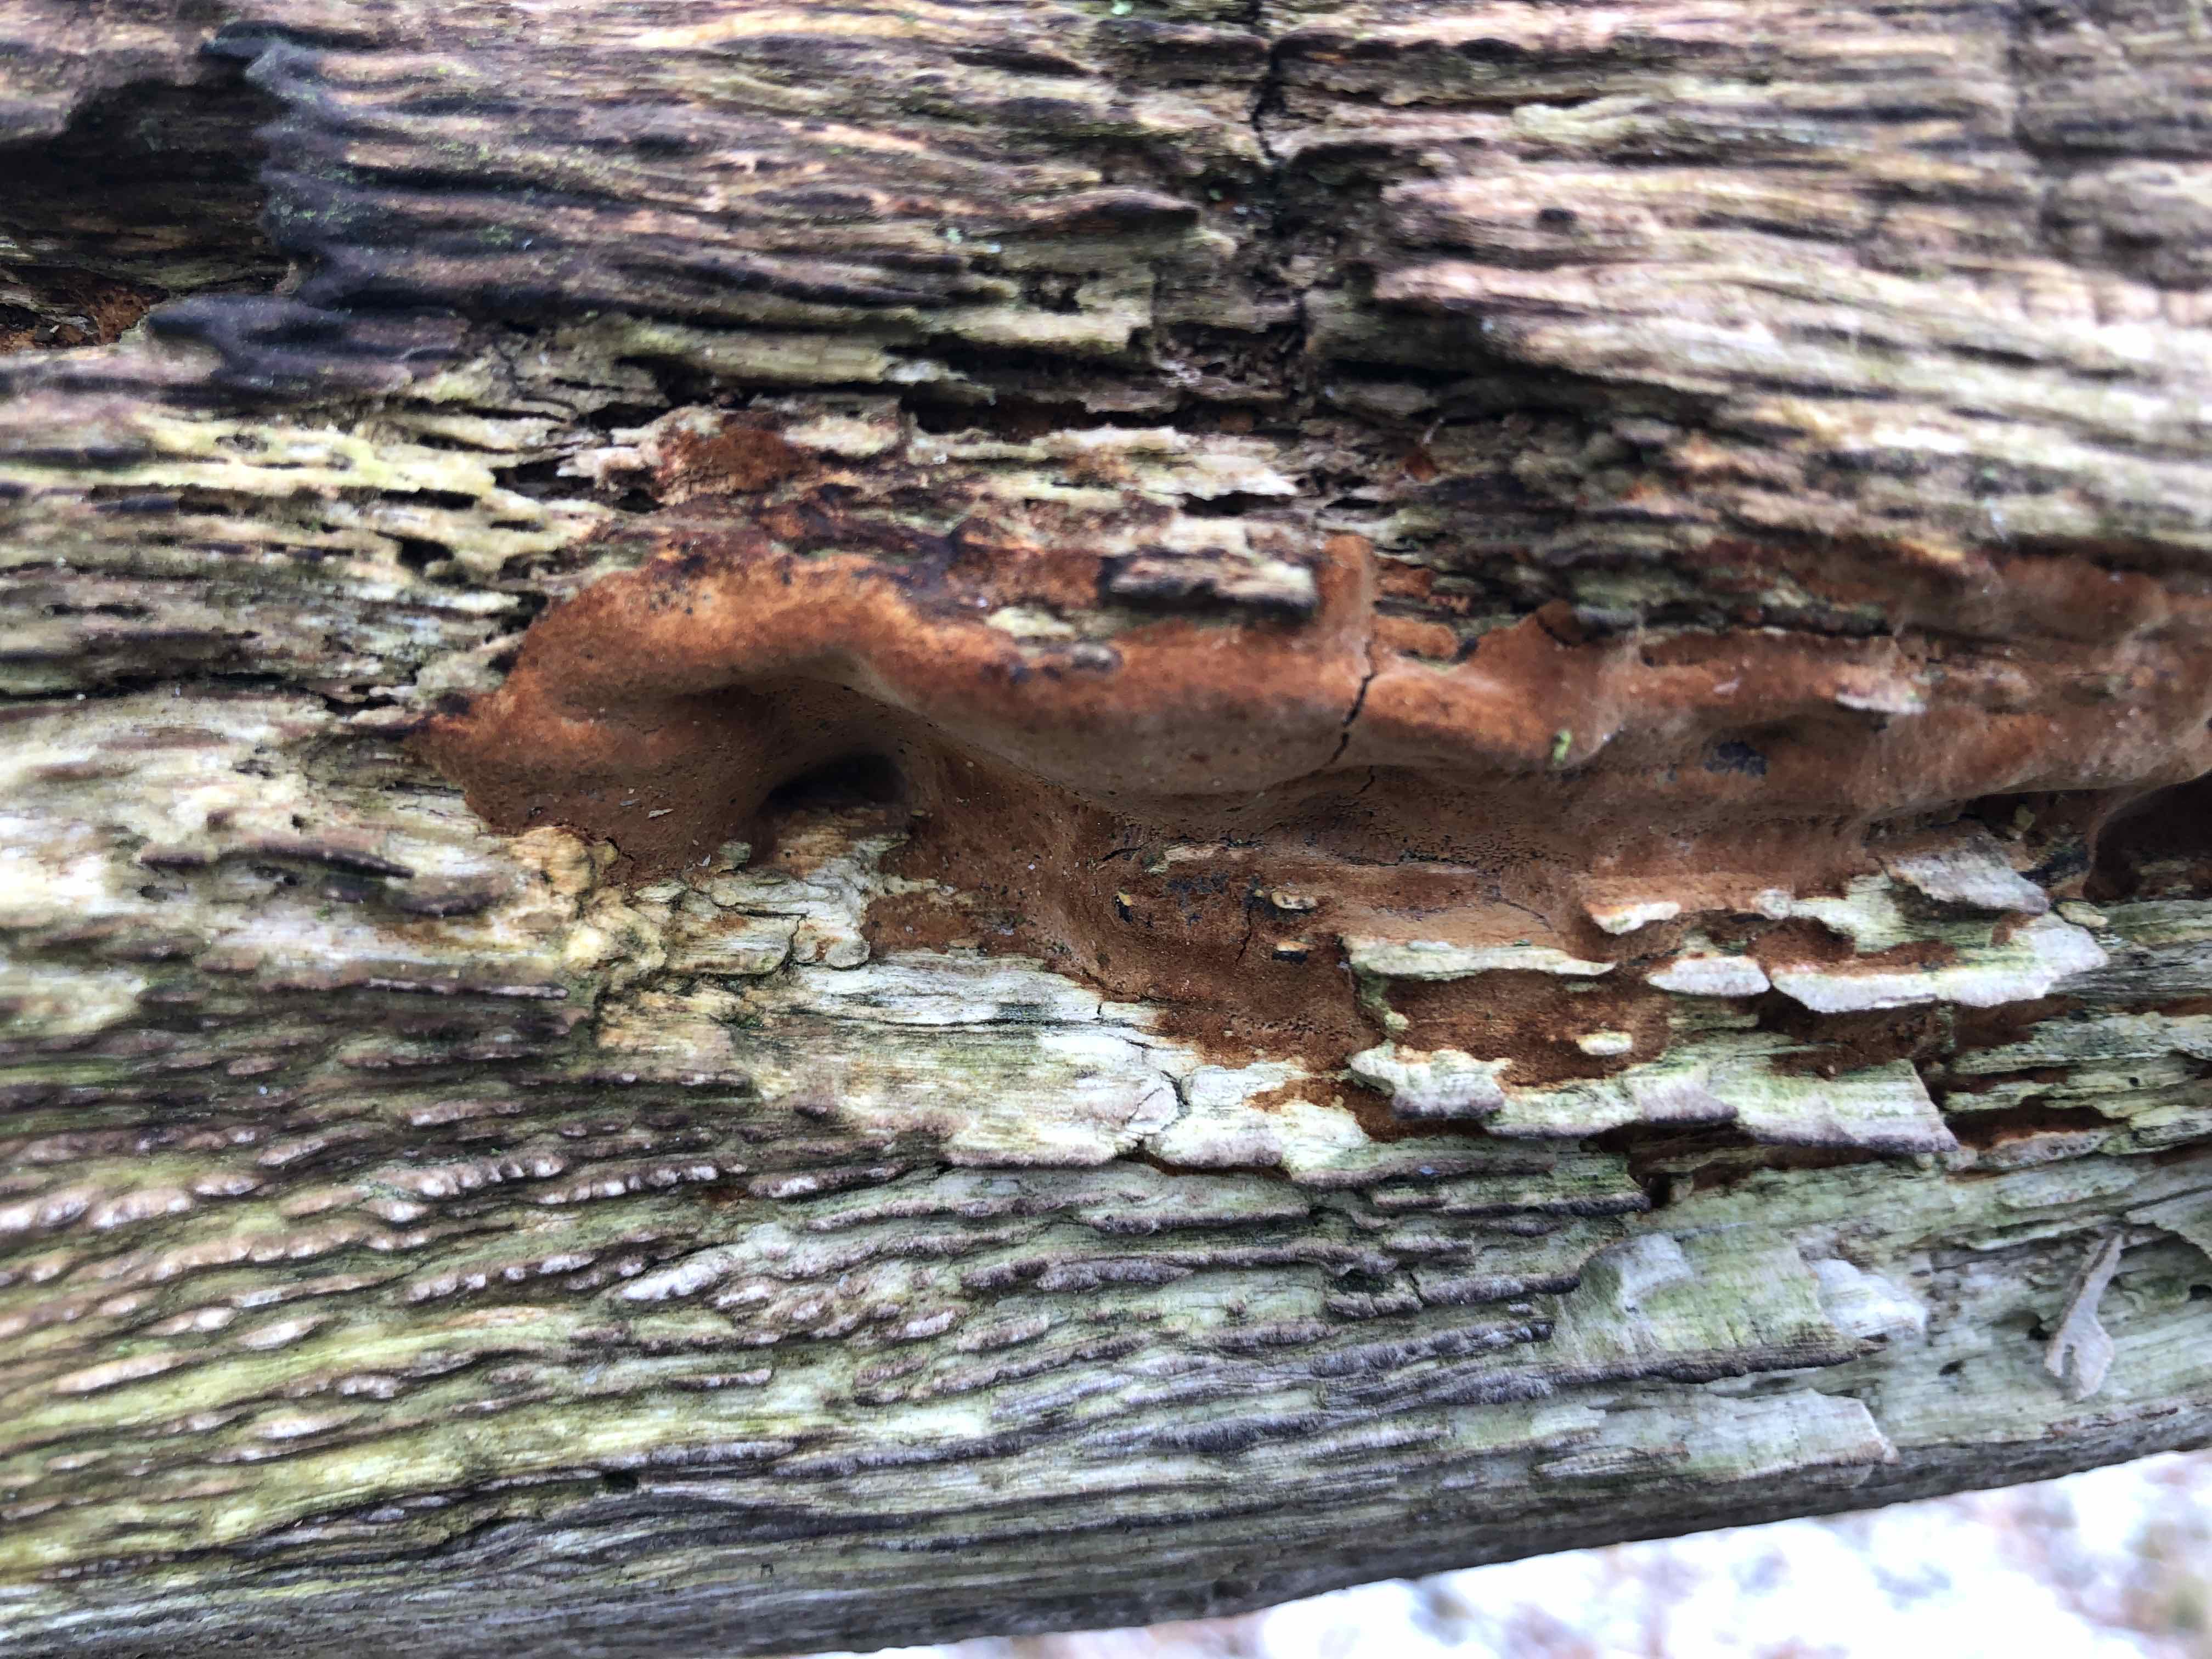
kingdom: Fungi
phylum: Basidiomycota
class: Agaricomycetes
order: Hymenochaetales
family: Hymenochaetaceae
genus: Fuscoporia
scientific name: Fuscoporia ferrea
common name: skorpe-ildporesvamp
